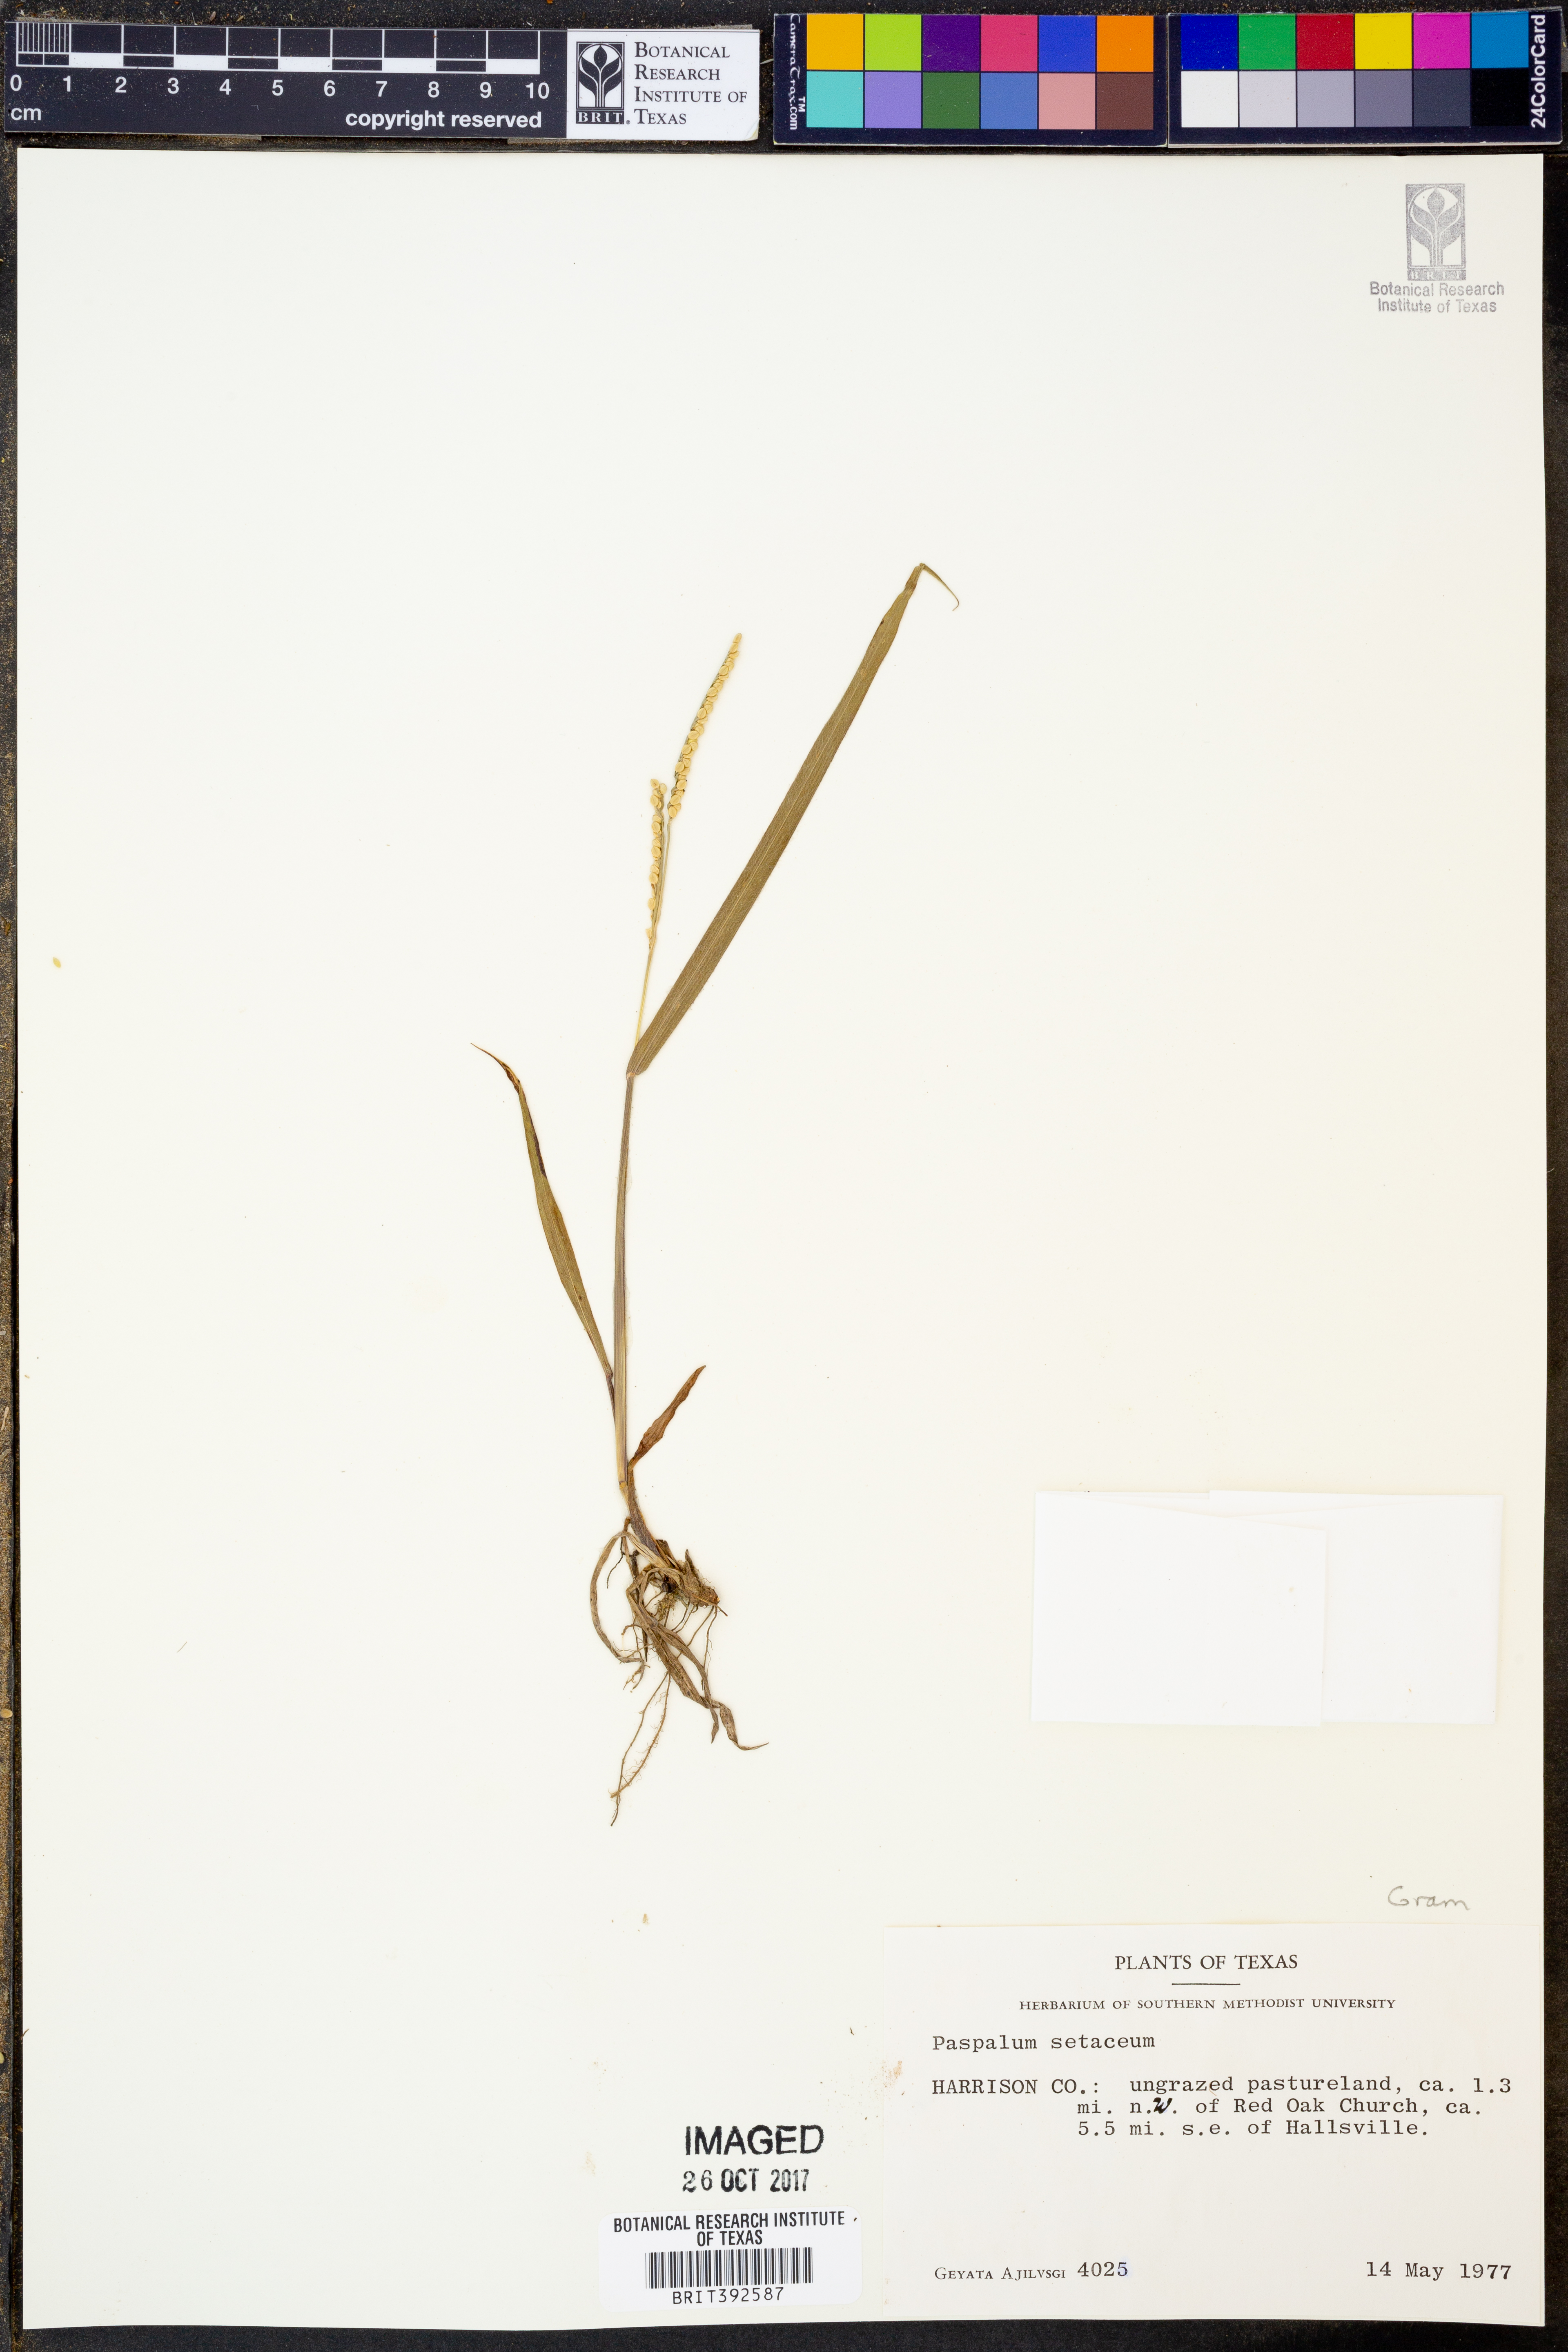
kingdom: Plantae
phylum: Tracheophyta
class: Liliopsida
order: Poales
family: Poaceae
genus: Paspalum
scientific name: Paspalum setaceum
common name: Slender paspalum
